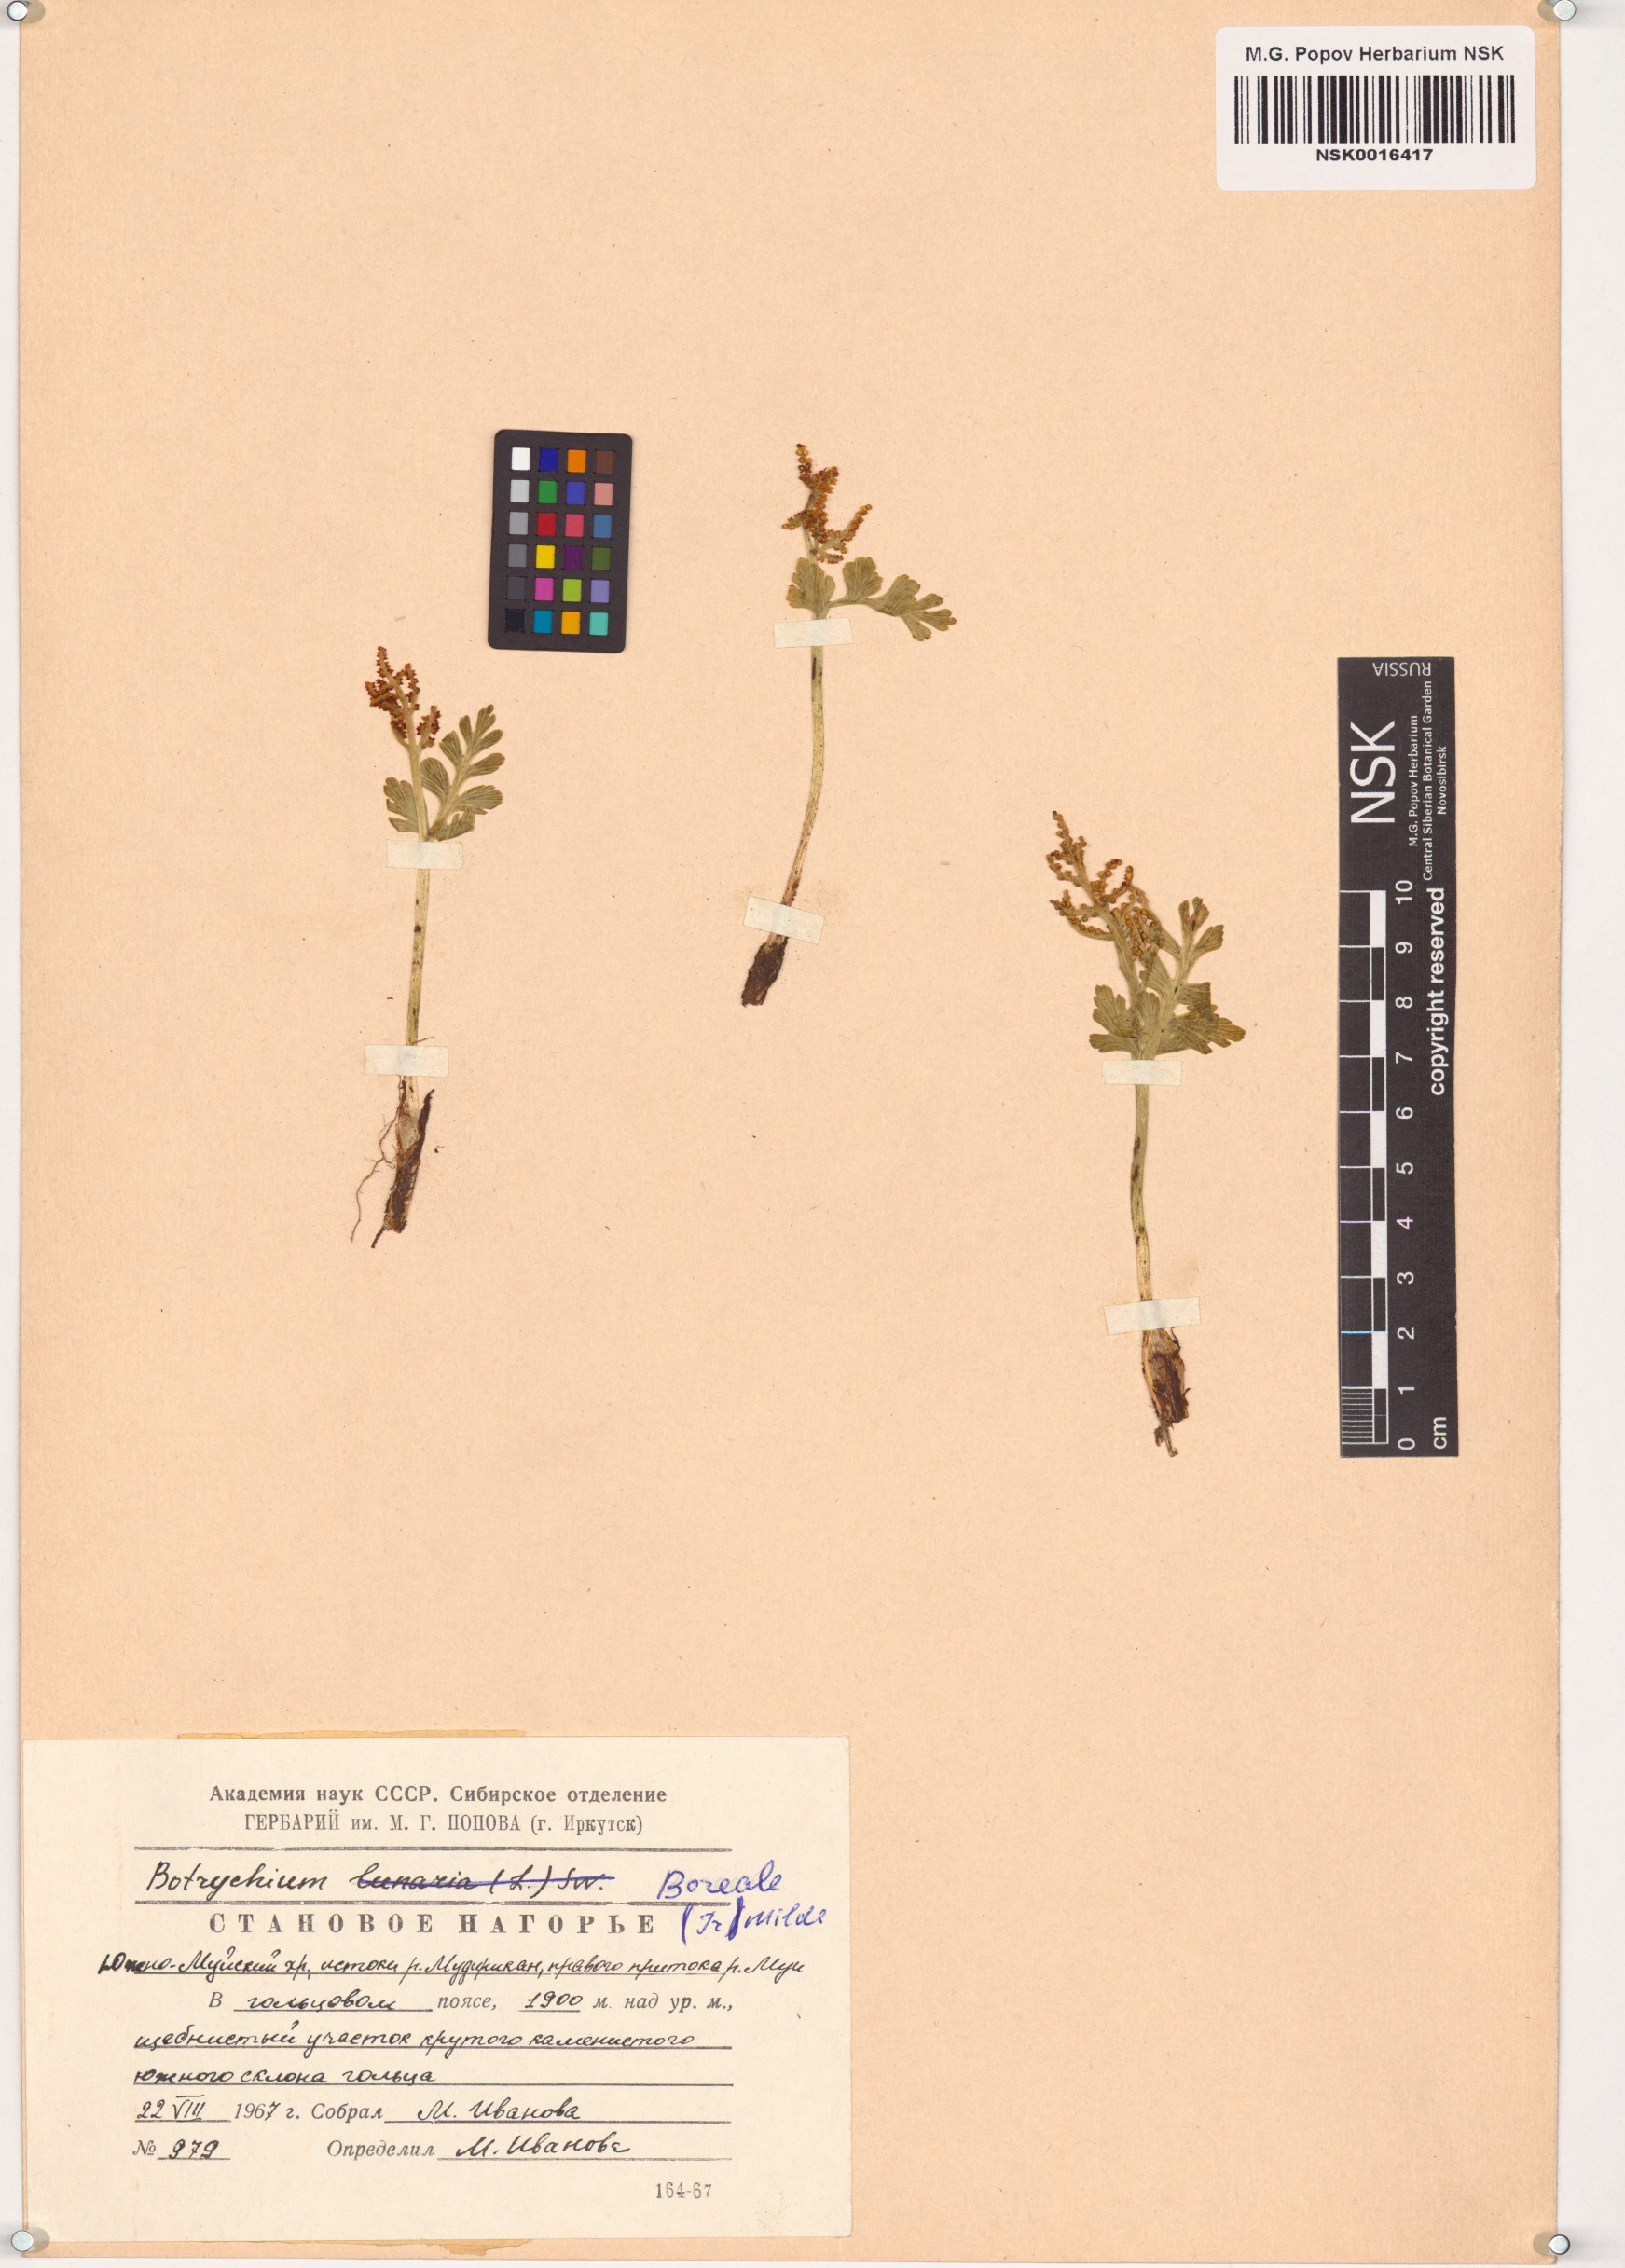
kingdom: Plantae
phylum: Tracheophyta
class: Polypodiopsida
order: Ophioglossales
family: Ophioglossaceae
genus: Botrychium
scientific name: Botrychium boreale
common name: Boreal moonwort
